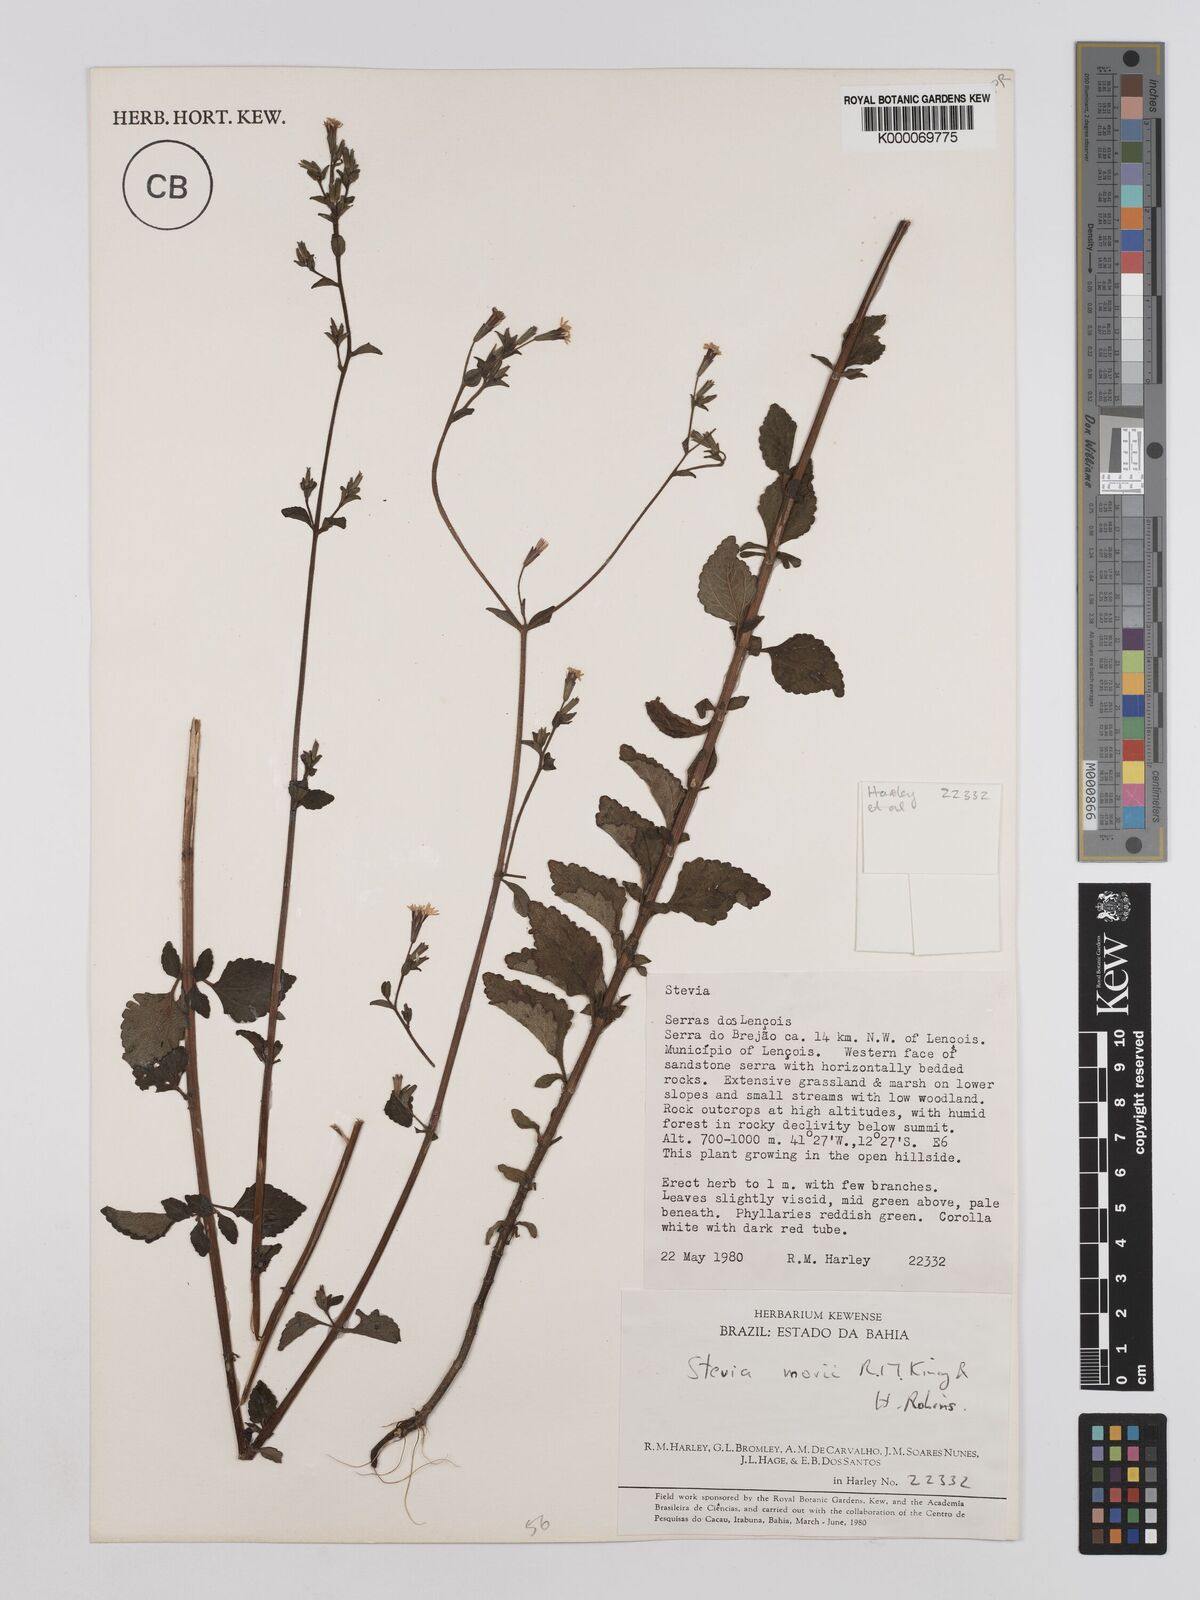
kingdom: Plantae
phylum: Tracheophyta
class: Magnoliopsida
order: Asterales
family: Asteraceae
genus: Stevia
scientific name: Stevia morii
